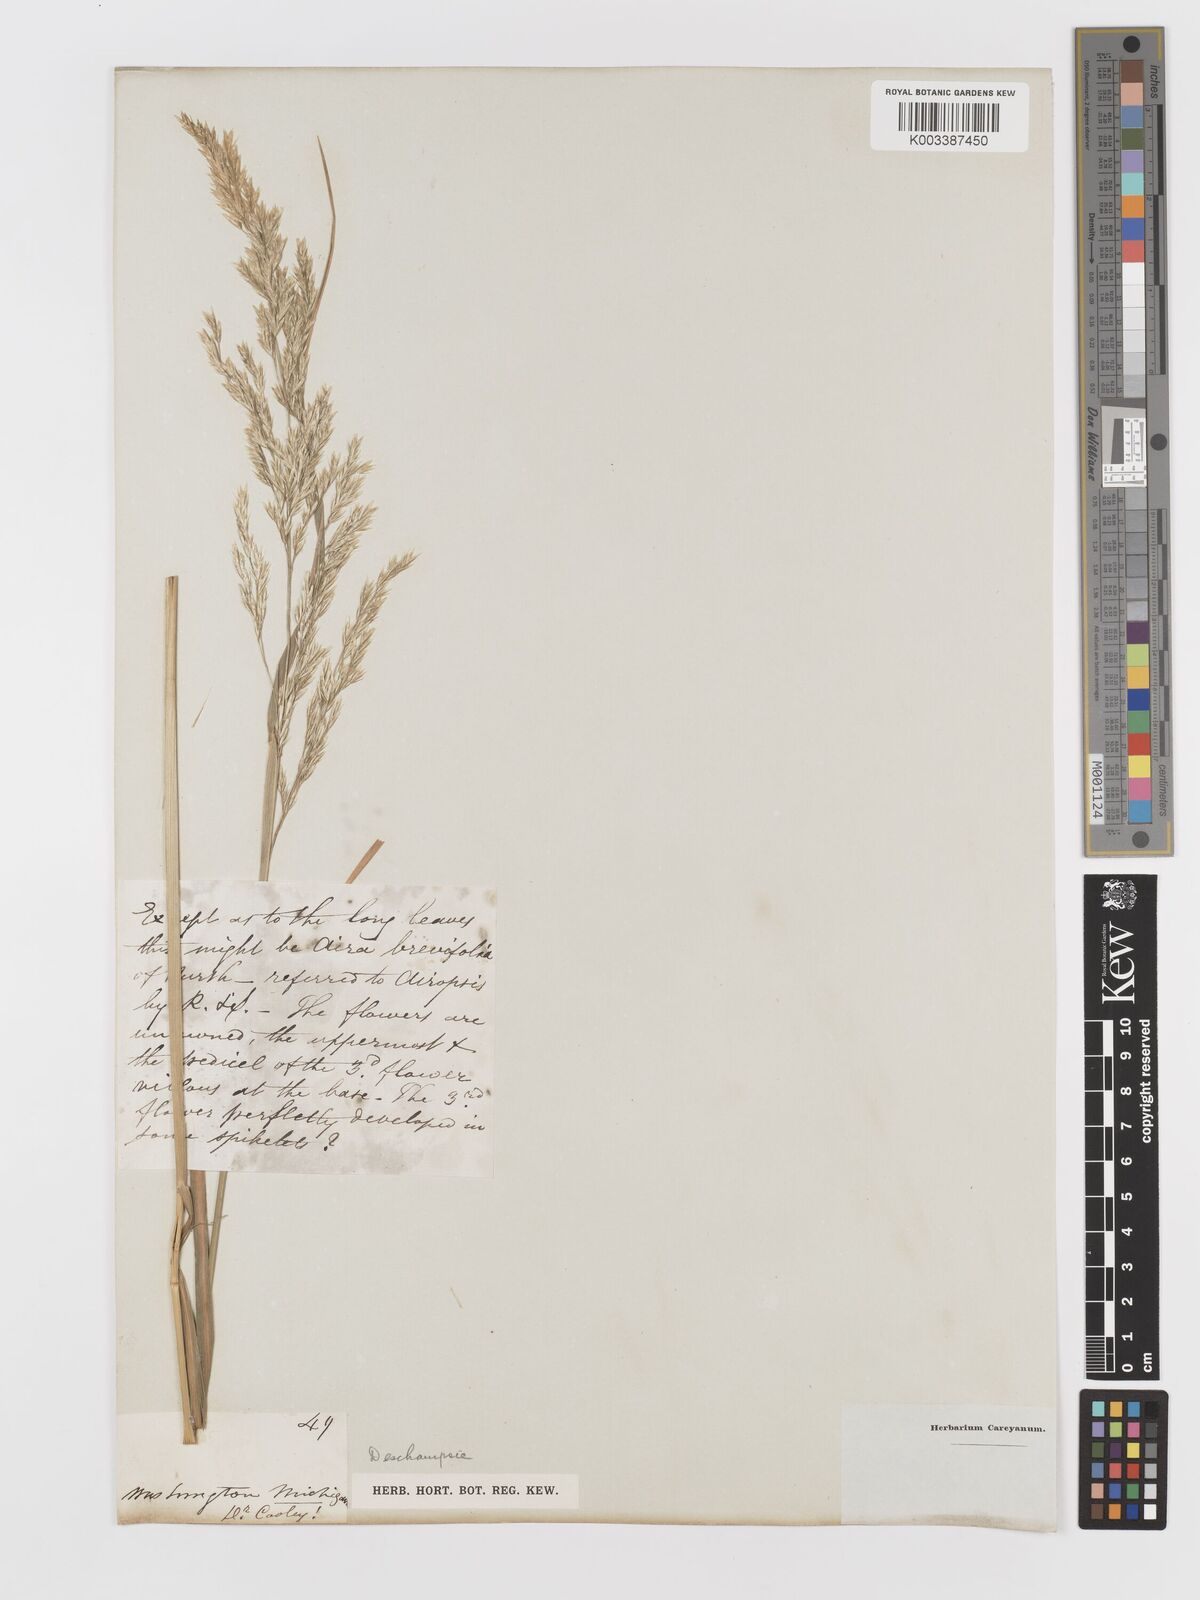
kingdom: Plantae
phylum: Tracheophyta
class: Liliopsida
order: Poales
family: Poaceae
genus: Deschampsia
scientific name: Deschampsia
